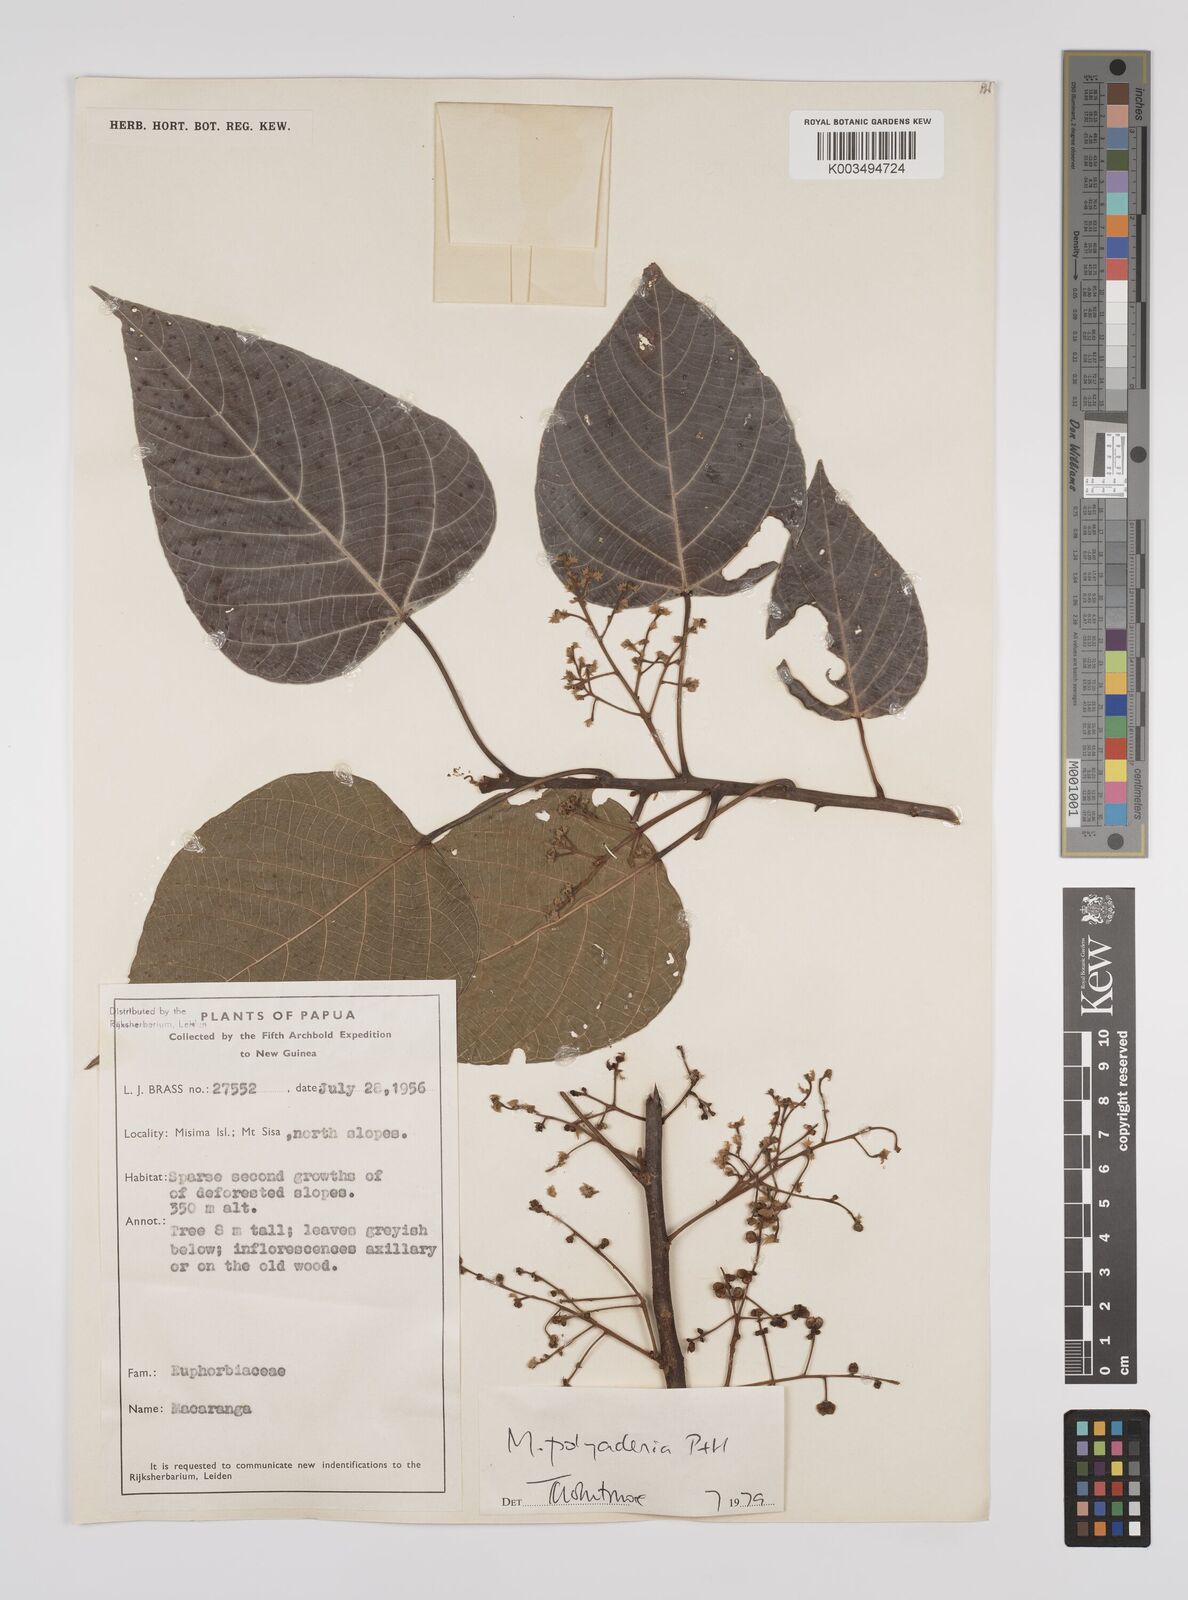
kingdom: Plantae
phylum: Tracheophyta
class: Magnoliopsida
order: Malpighiales
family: Euphorbiaceae
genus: Macaranga
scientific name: Macaranga polyadenia
